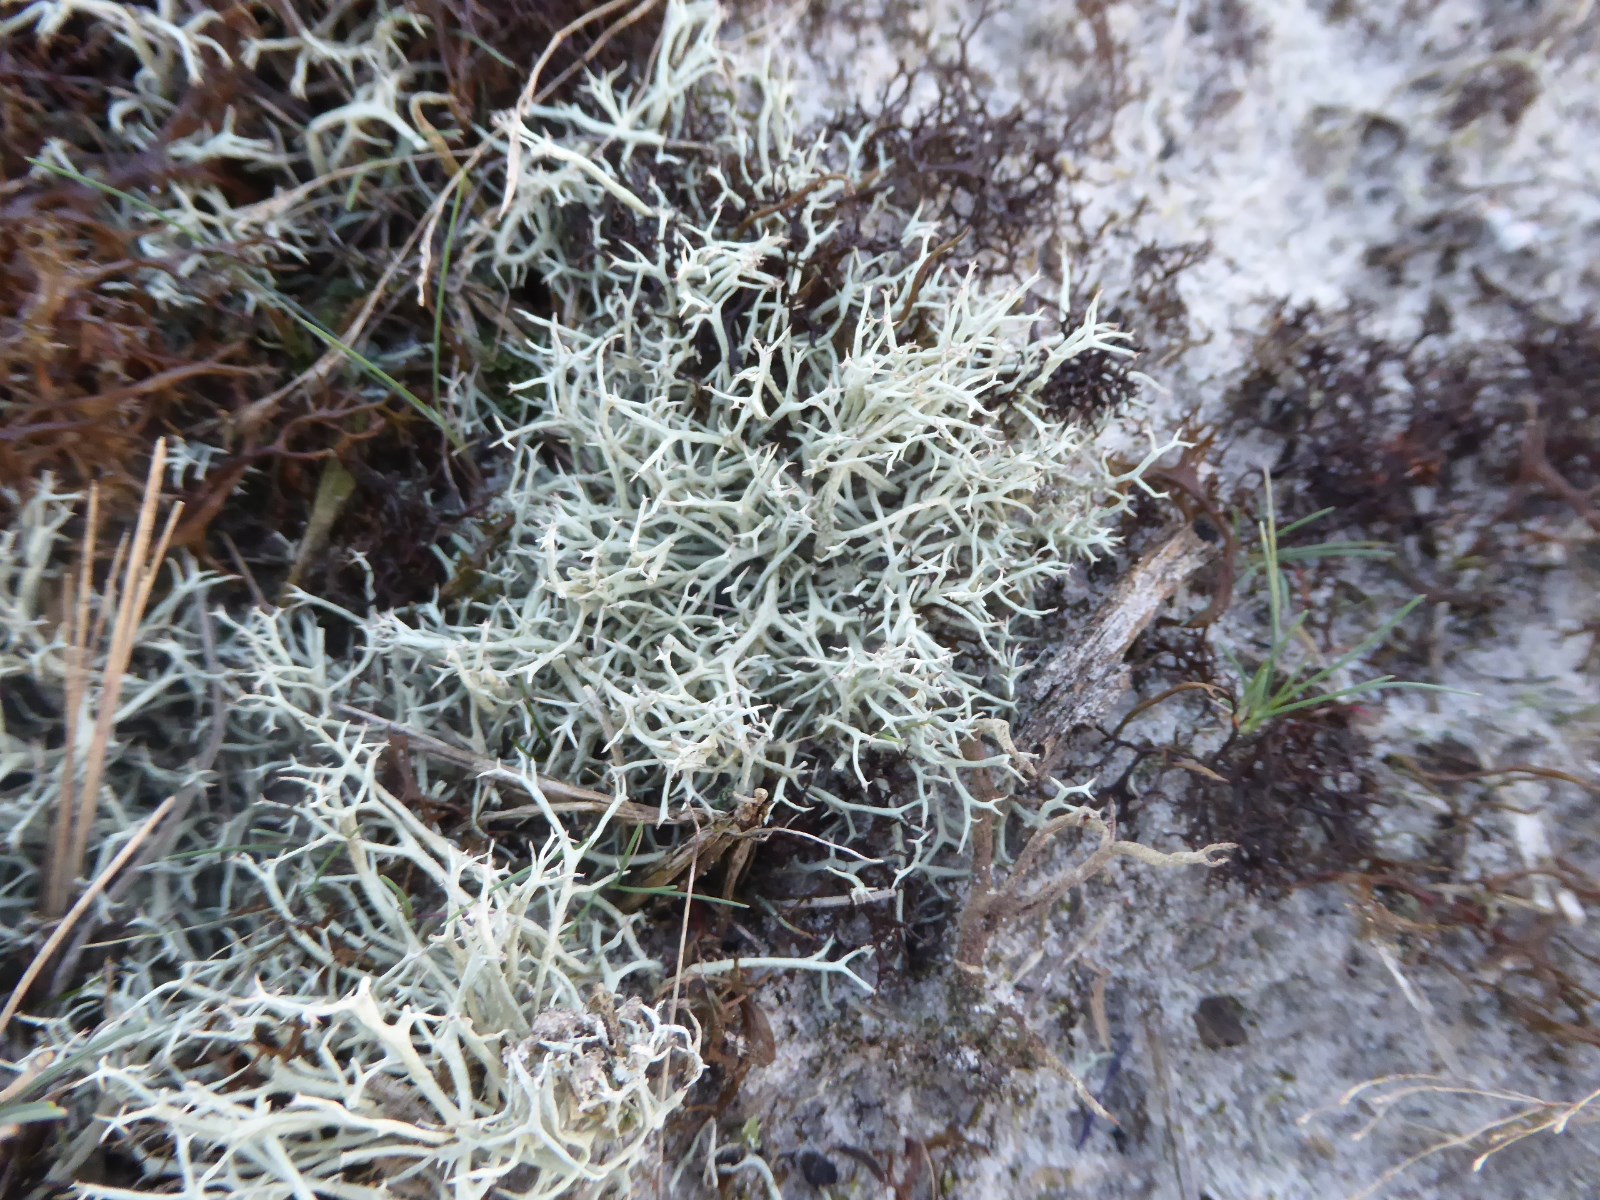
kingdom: Fungi
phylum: Ascomycota
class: Lecanoromycetes
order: Lecanorales
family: Cladoniaceae
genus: Cladonia
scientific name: Cladonia zopfii
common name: klit-bægerlav
